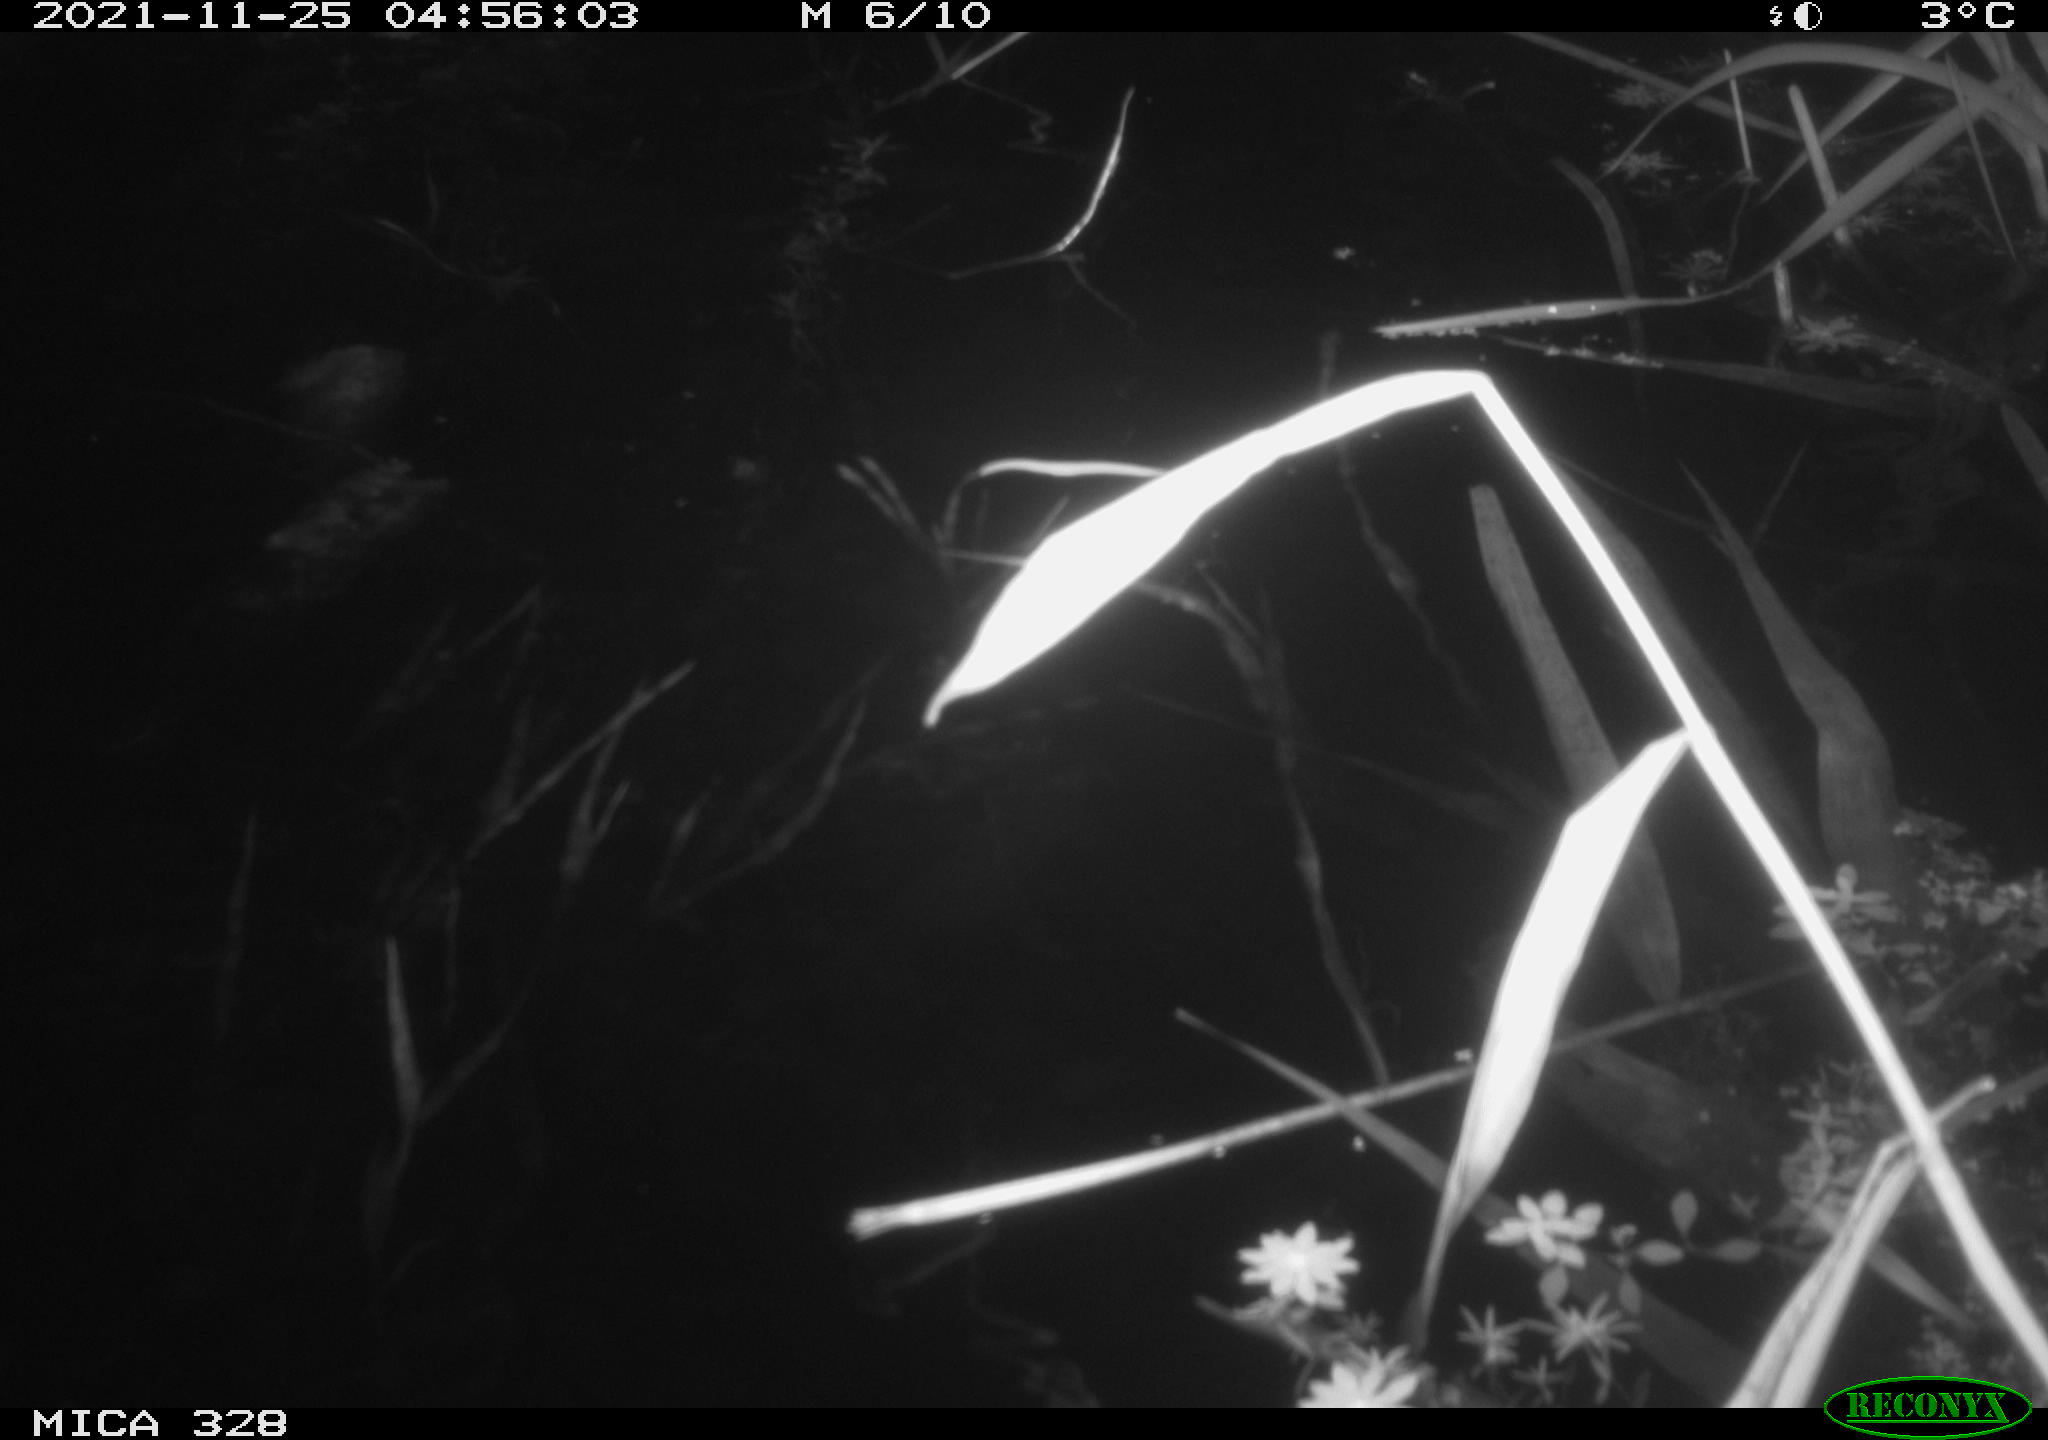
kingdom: Animalia
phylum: Chordata
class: Mammalia
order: Rodentia
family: Cricetidae
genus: Ondatra
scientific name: Ondatra zibethicus
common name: Muskrat
